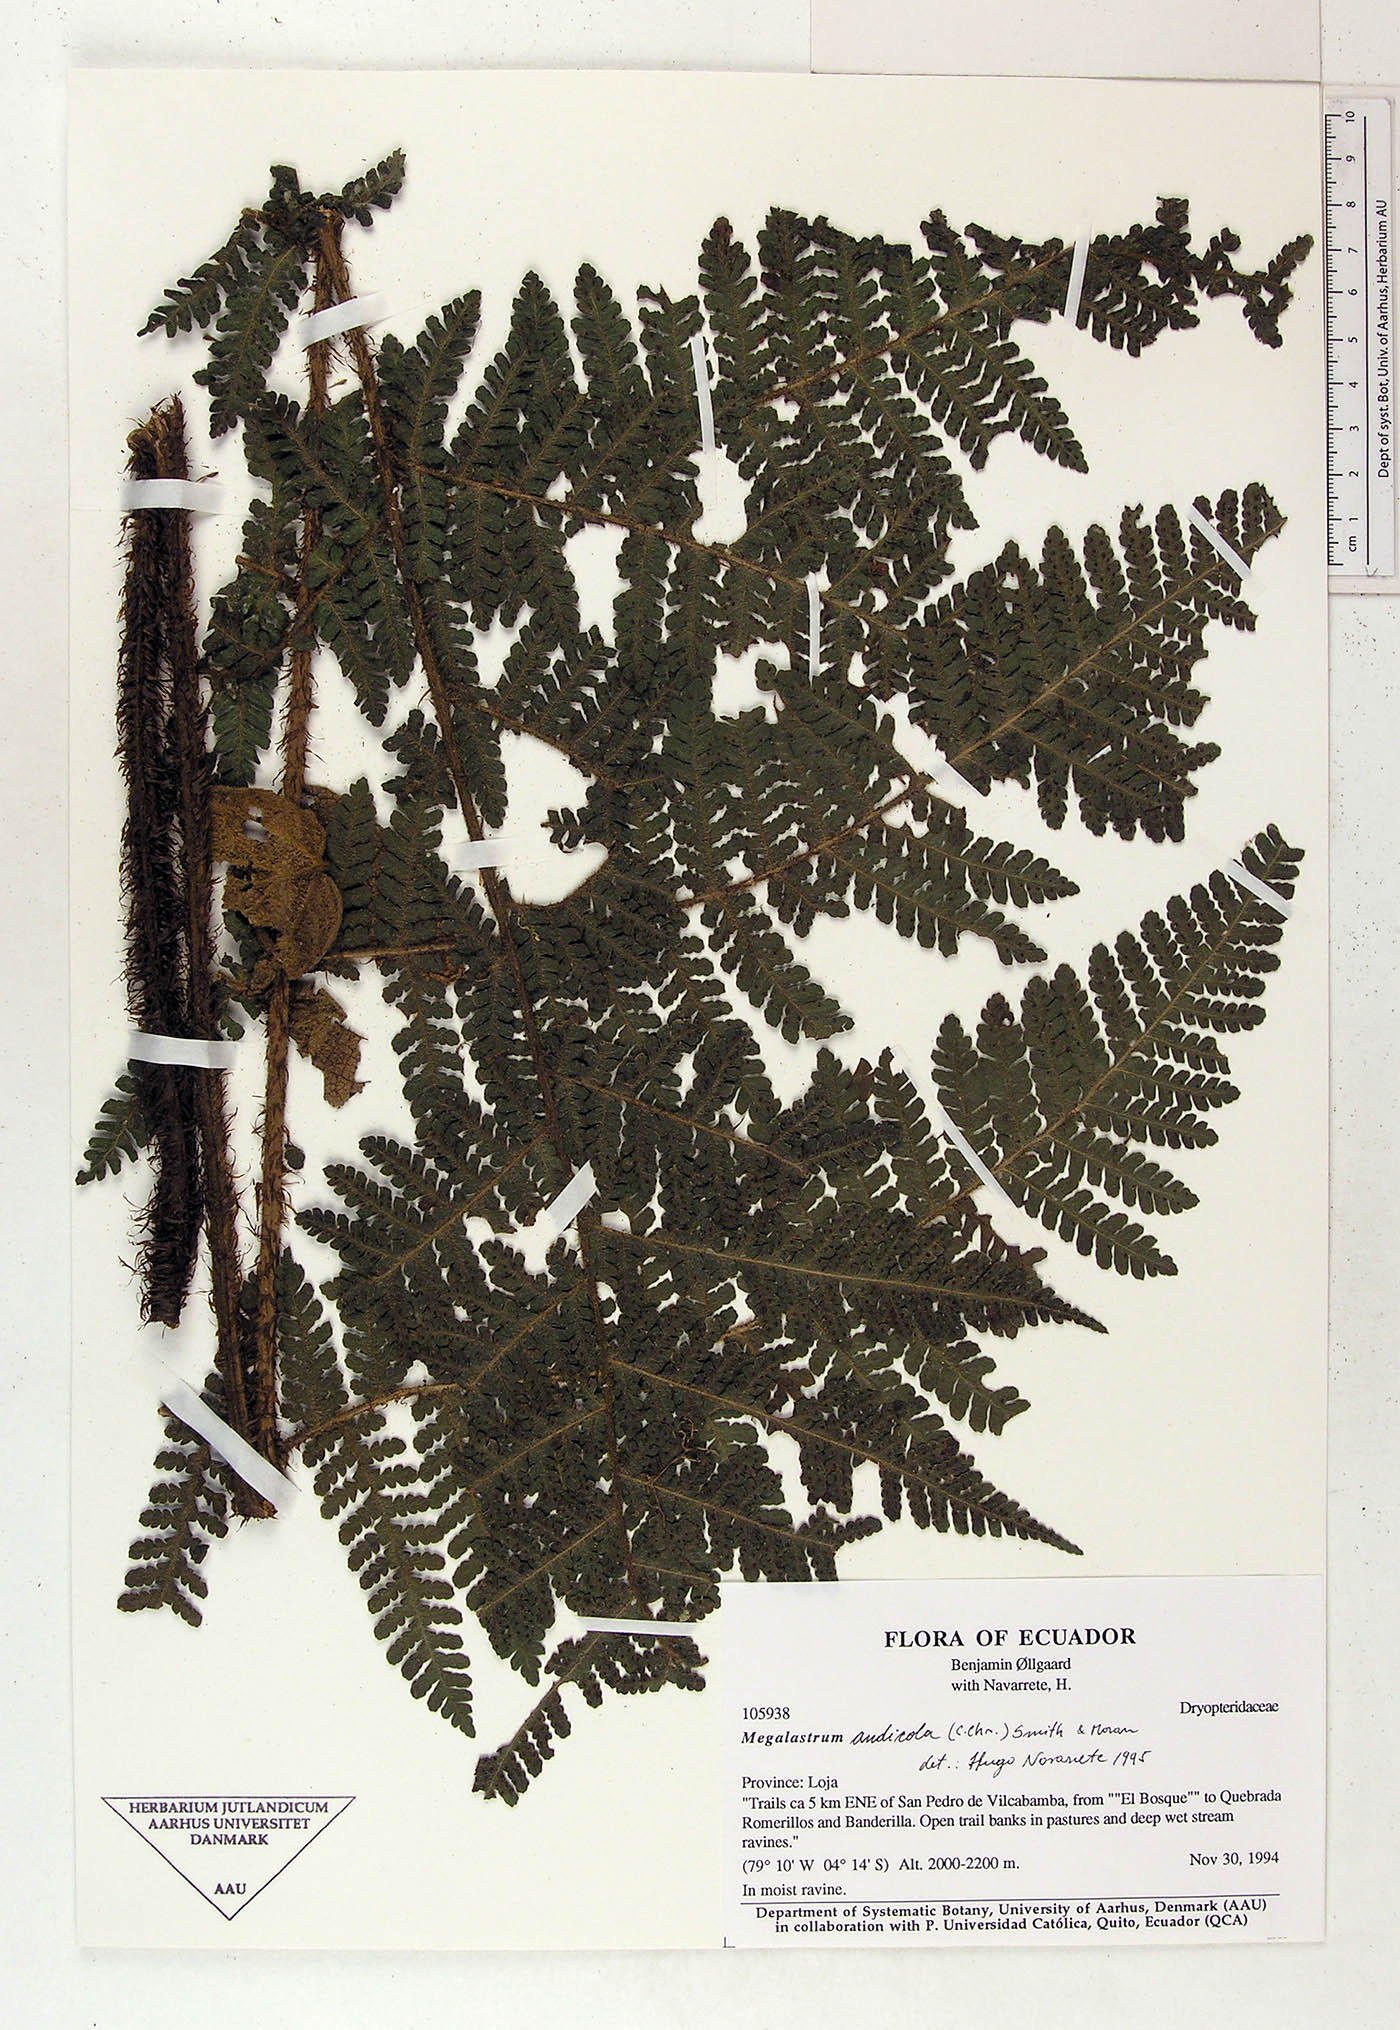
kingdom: Plantae
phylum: Tracheophyta
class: Polypodiopsida
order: Polypodiales
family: Dryopteridaceae
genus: Megalastrum
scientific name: Megalastrum insigne
